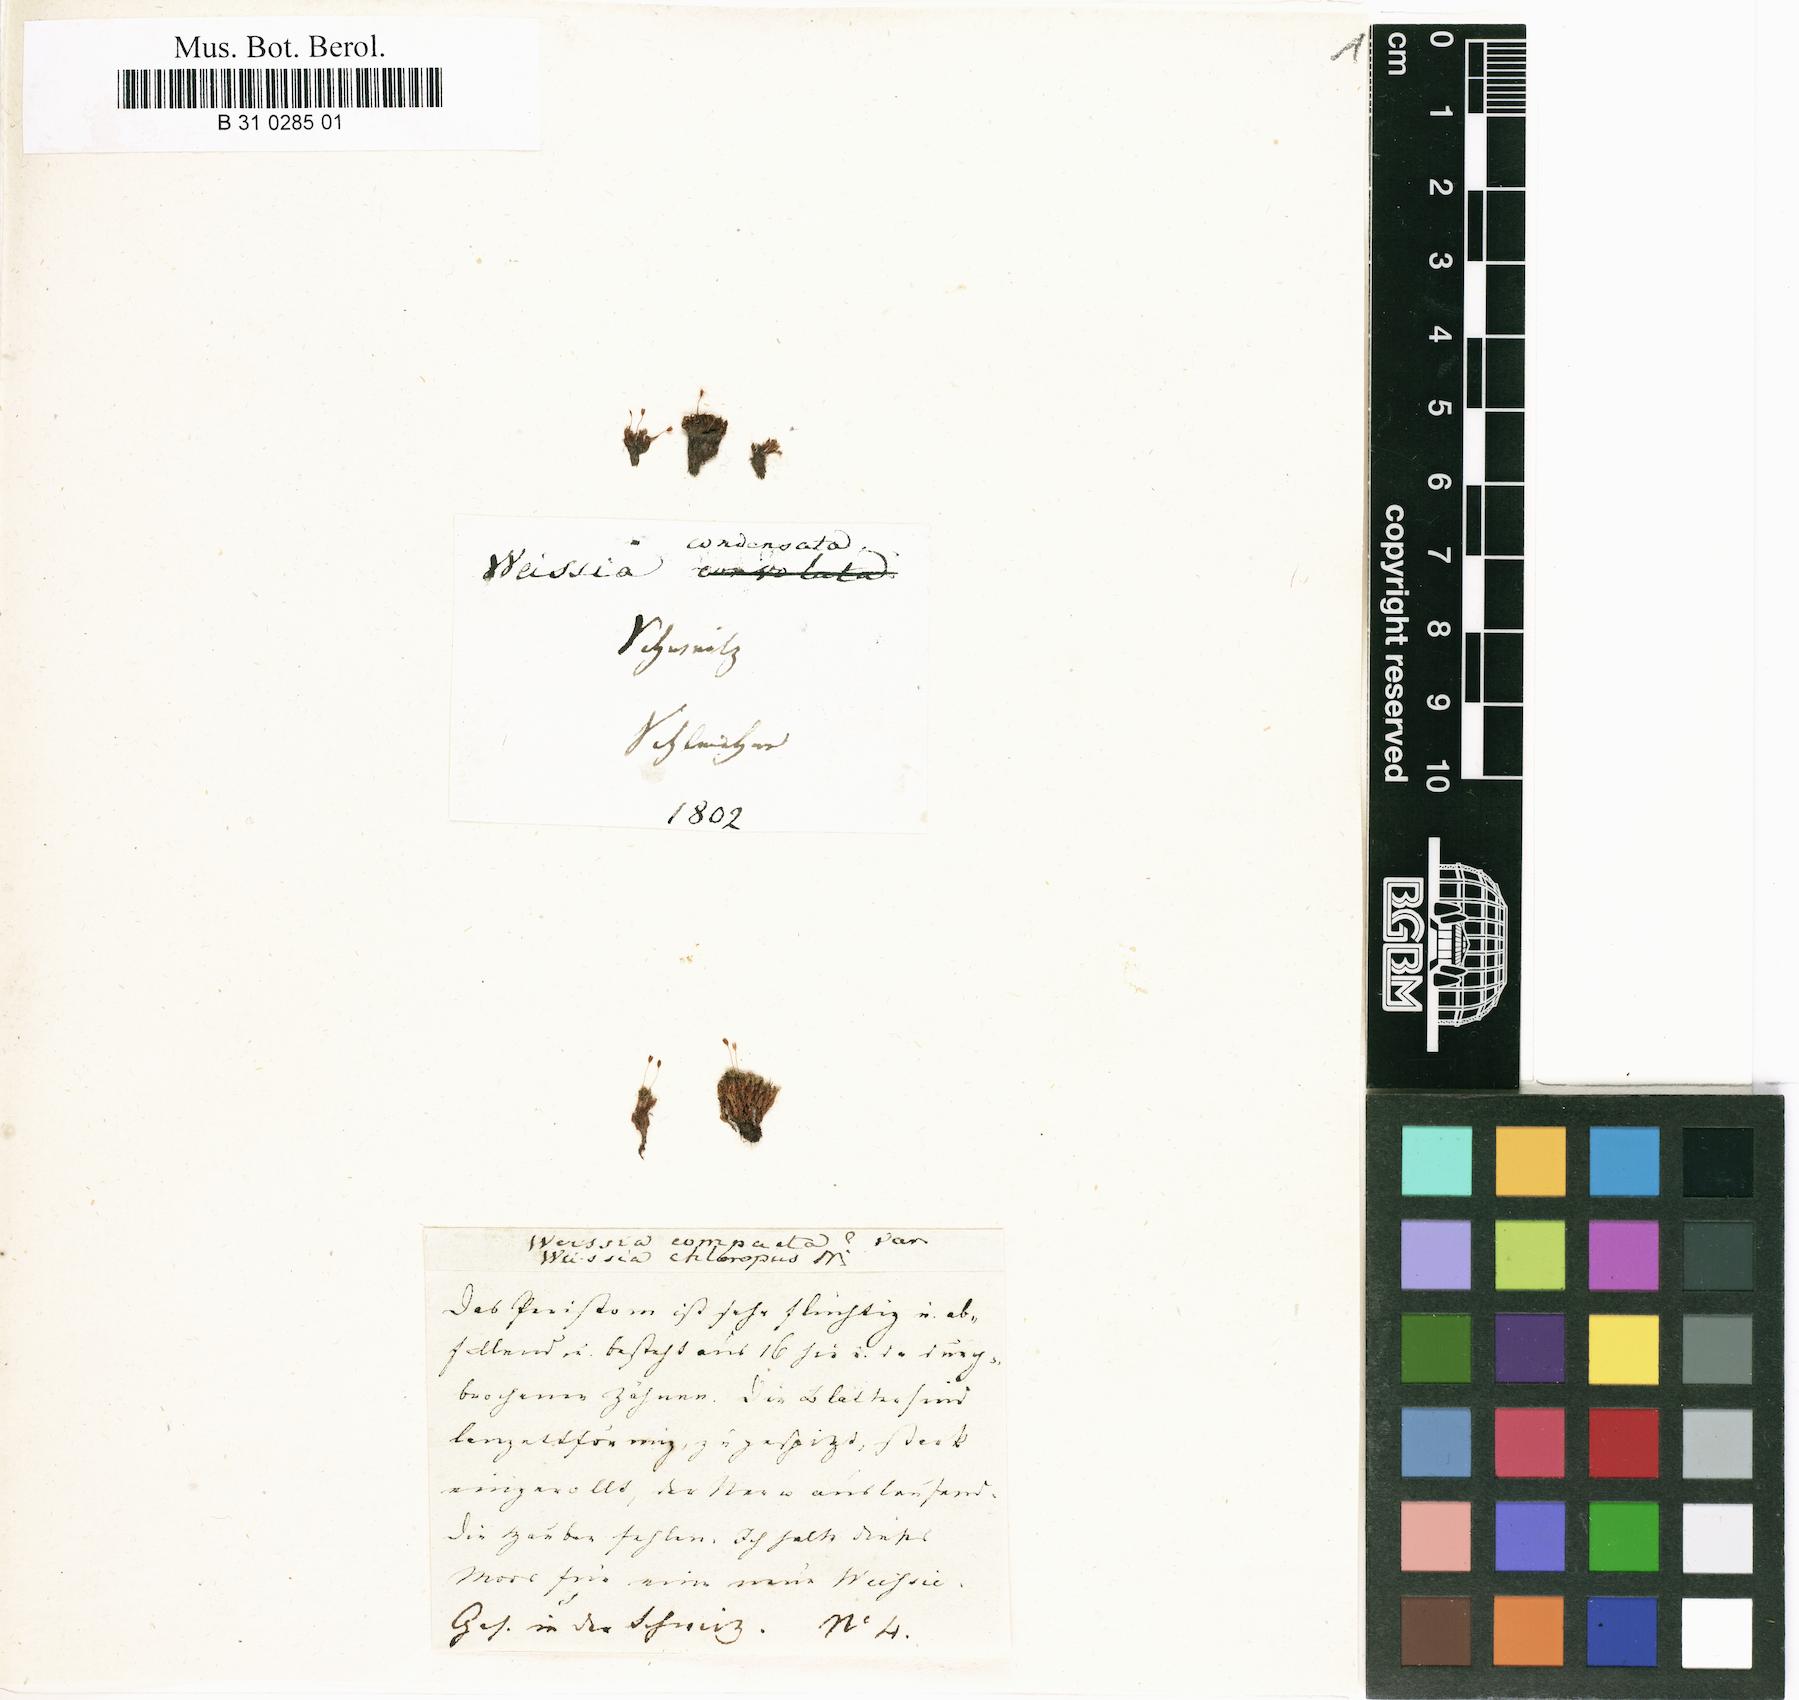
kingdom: Plantae
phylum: Bryophyta
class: Bryopsida
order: Scouleriales
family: Hymenolomataceae
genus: Hymenoloma
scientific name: Hymenoloma compactum
